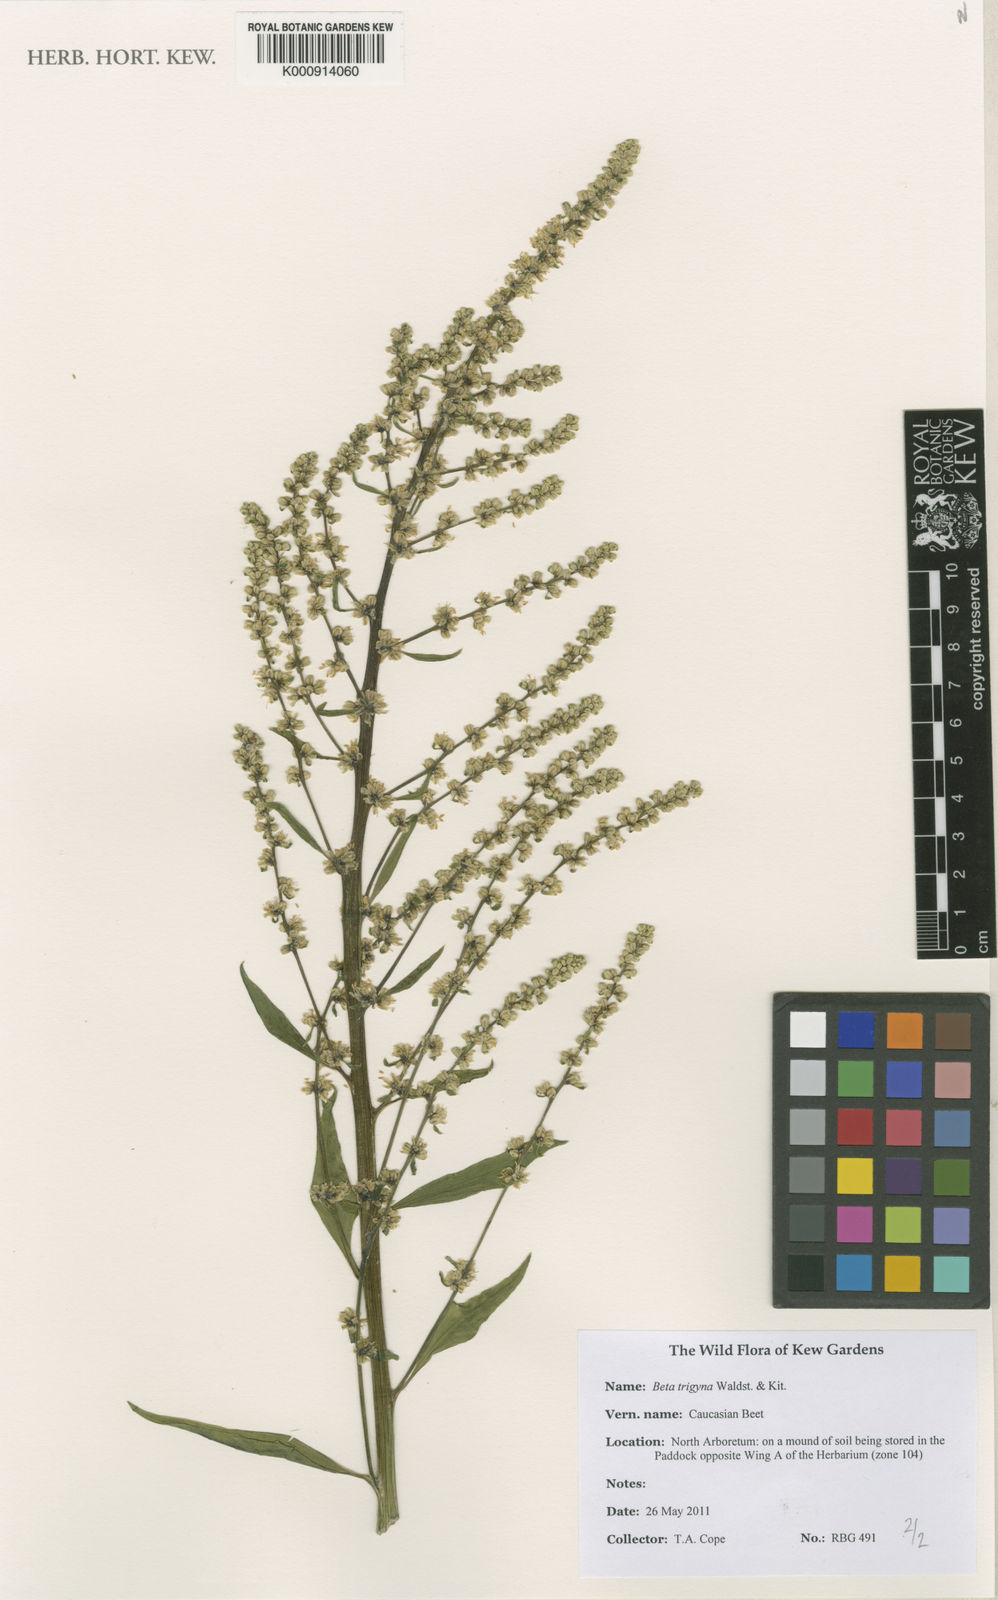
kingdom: Plantae
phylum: Tracheophyta
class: Magnoliopsida
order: Caryophyllales
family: Amaranthaceae
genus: Beta
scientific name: Beta trigyna
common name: Caucasian beet
